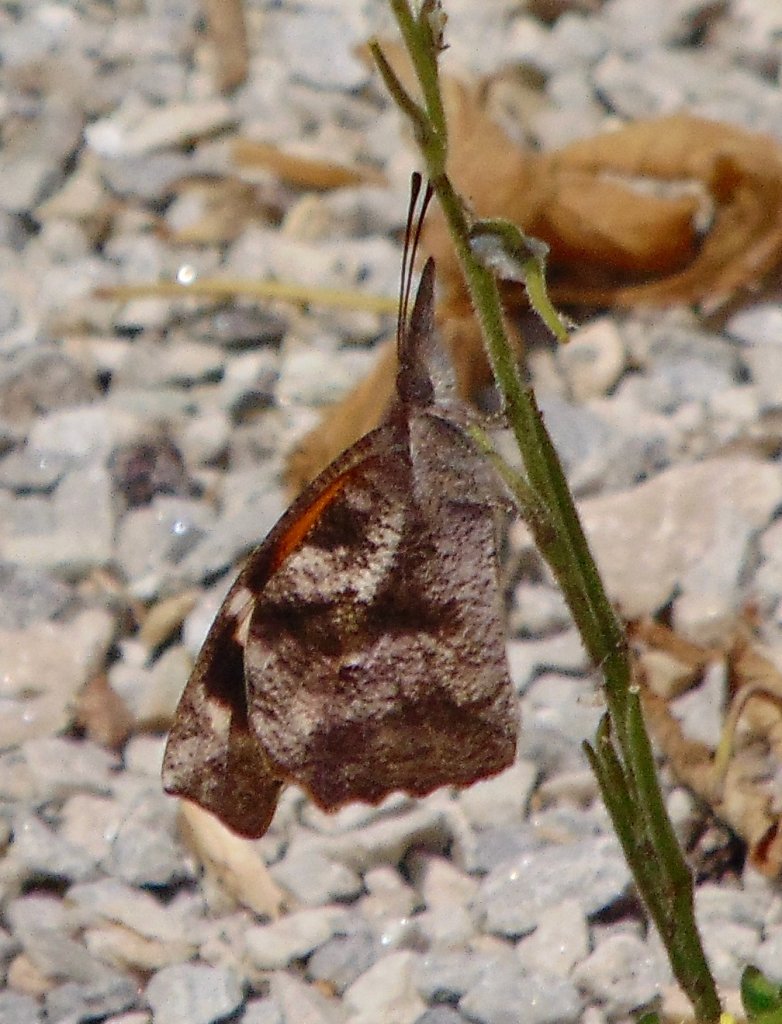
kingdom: Animalia
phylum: Arthropoda
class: Insecta
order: Lepidoptera
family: Nymphalidae
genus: Libytheana
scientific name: Libytheana carinenta
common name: American Snout
